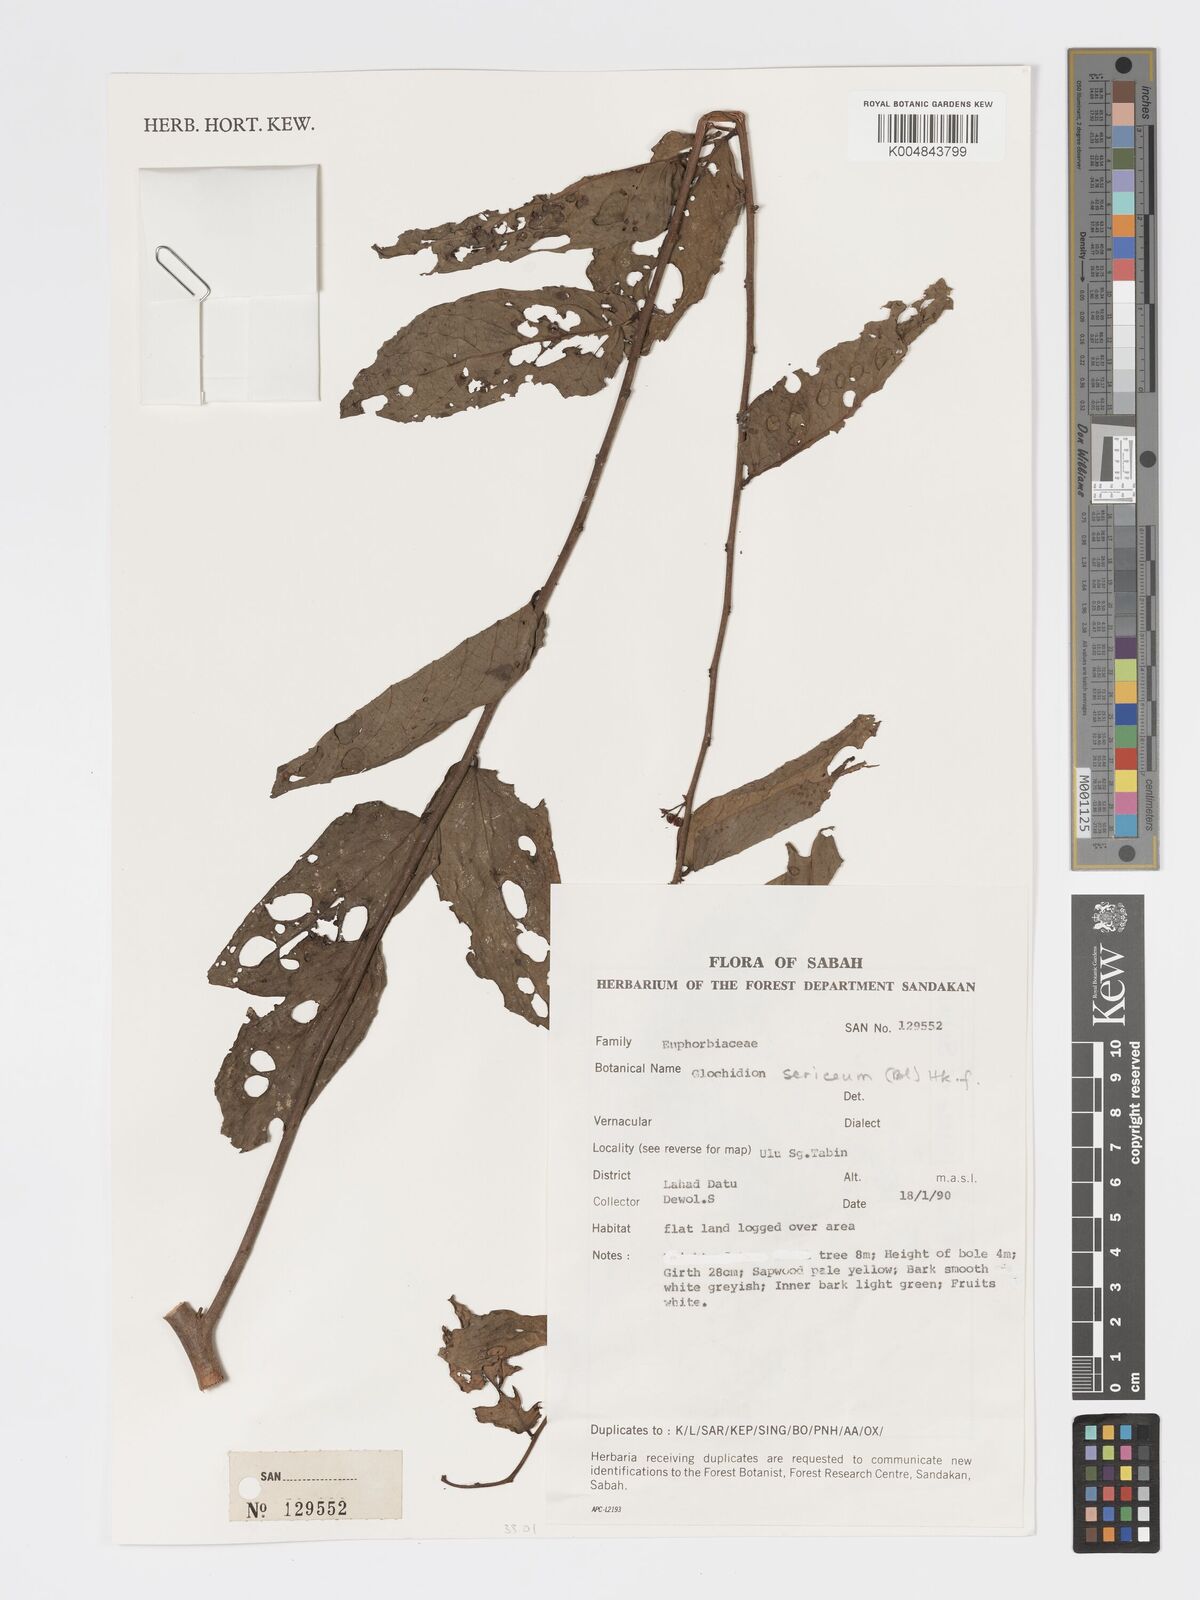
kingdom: Plantae
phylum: Tracheophyta
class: Magnoliopsida
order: Malpighiales
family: Phyllanthaceae
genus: Glochidion
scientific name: Glochidion sericeum
